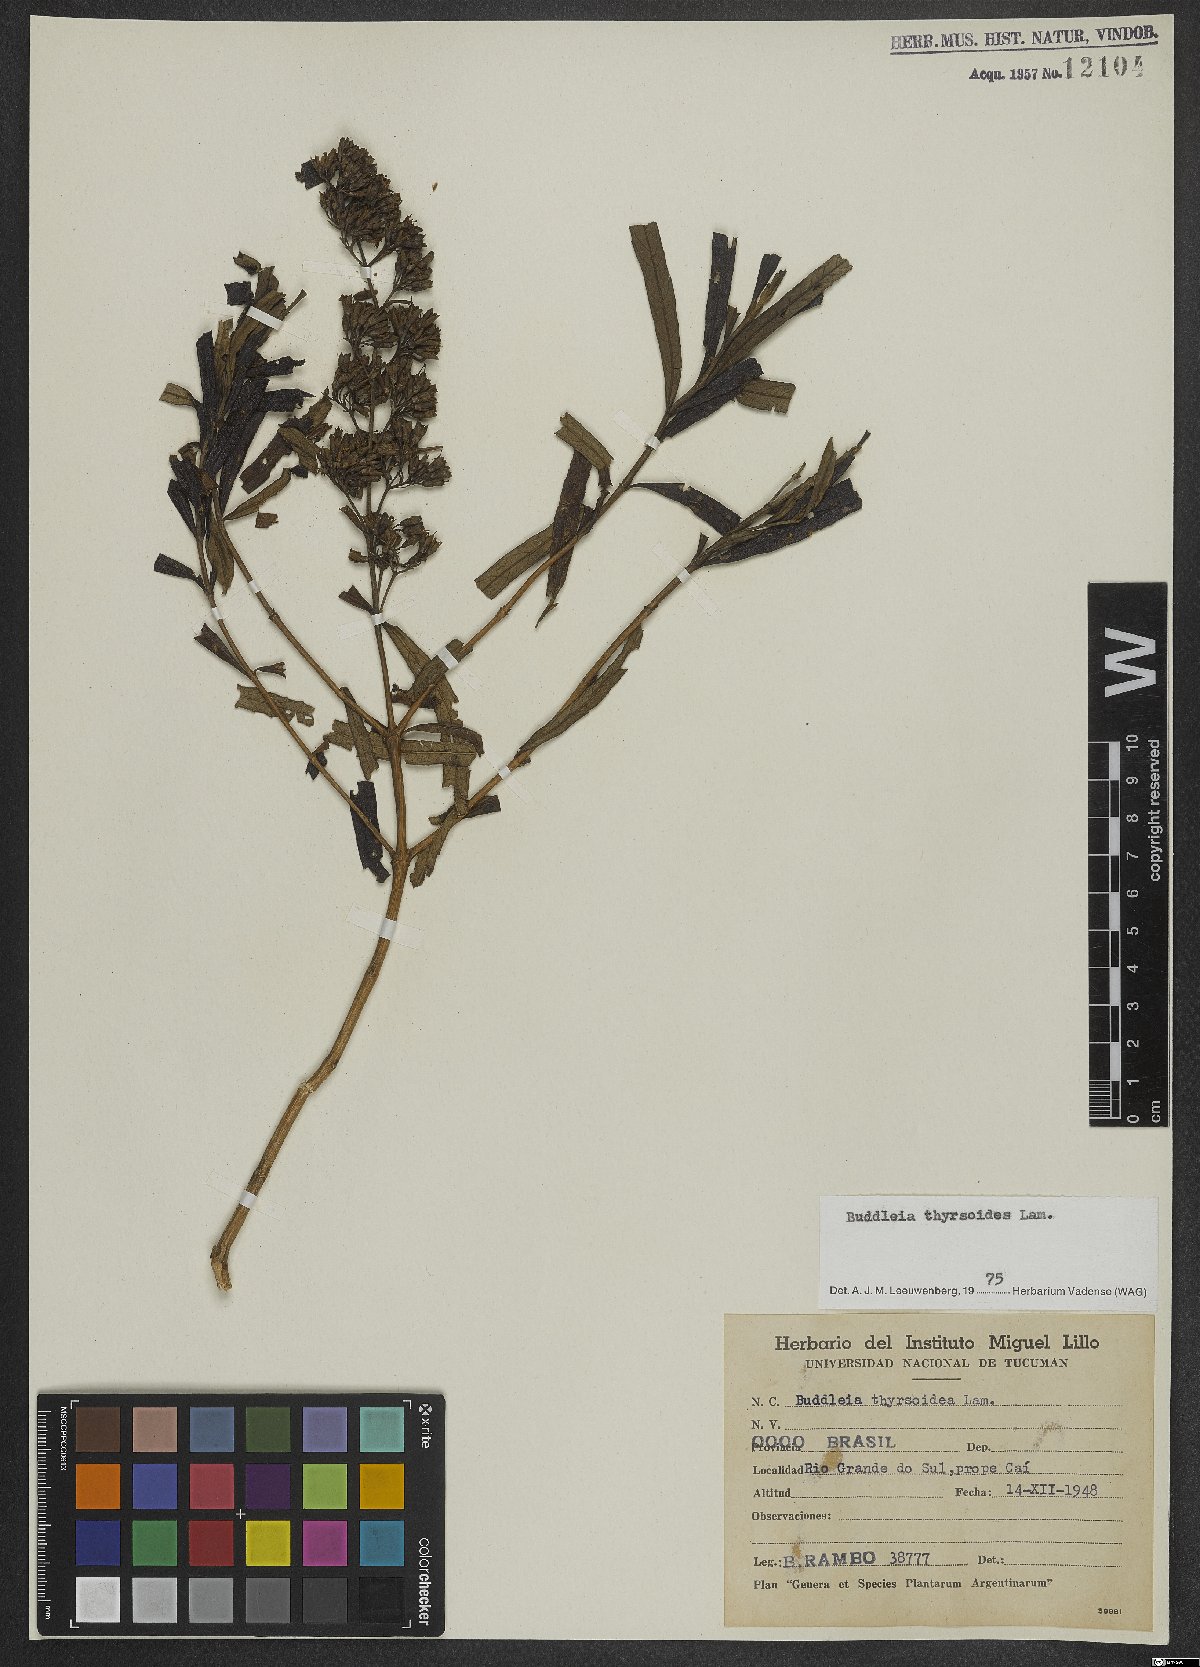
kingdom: Plantae
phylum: Tracheophyta
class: Magnoliopsida
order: Lamiales
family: Scrophulariaceae
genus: Buddleja
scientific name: Buddleja thyrsoides
